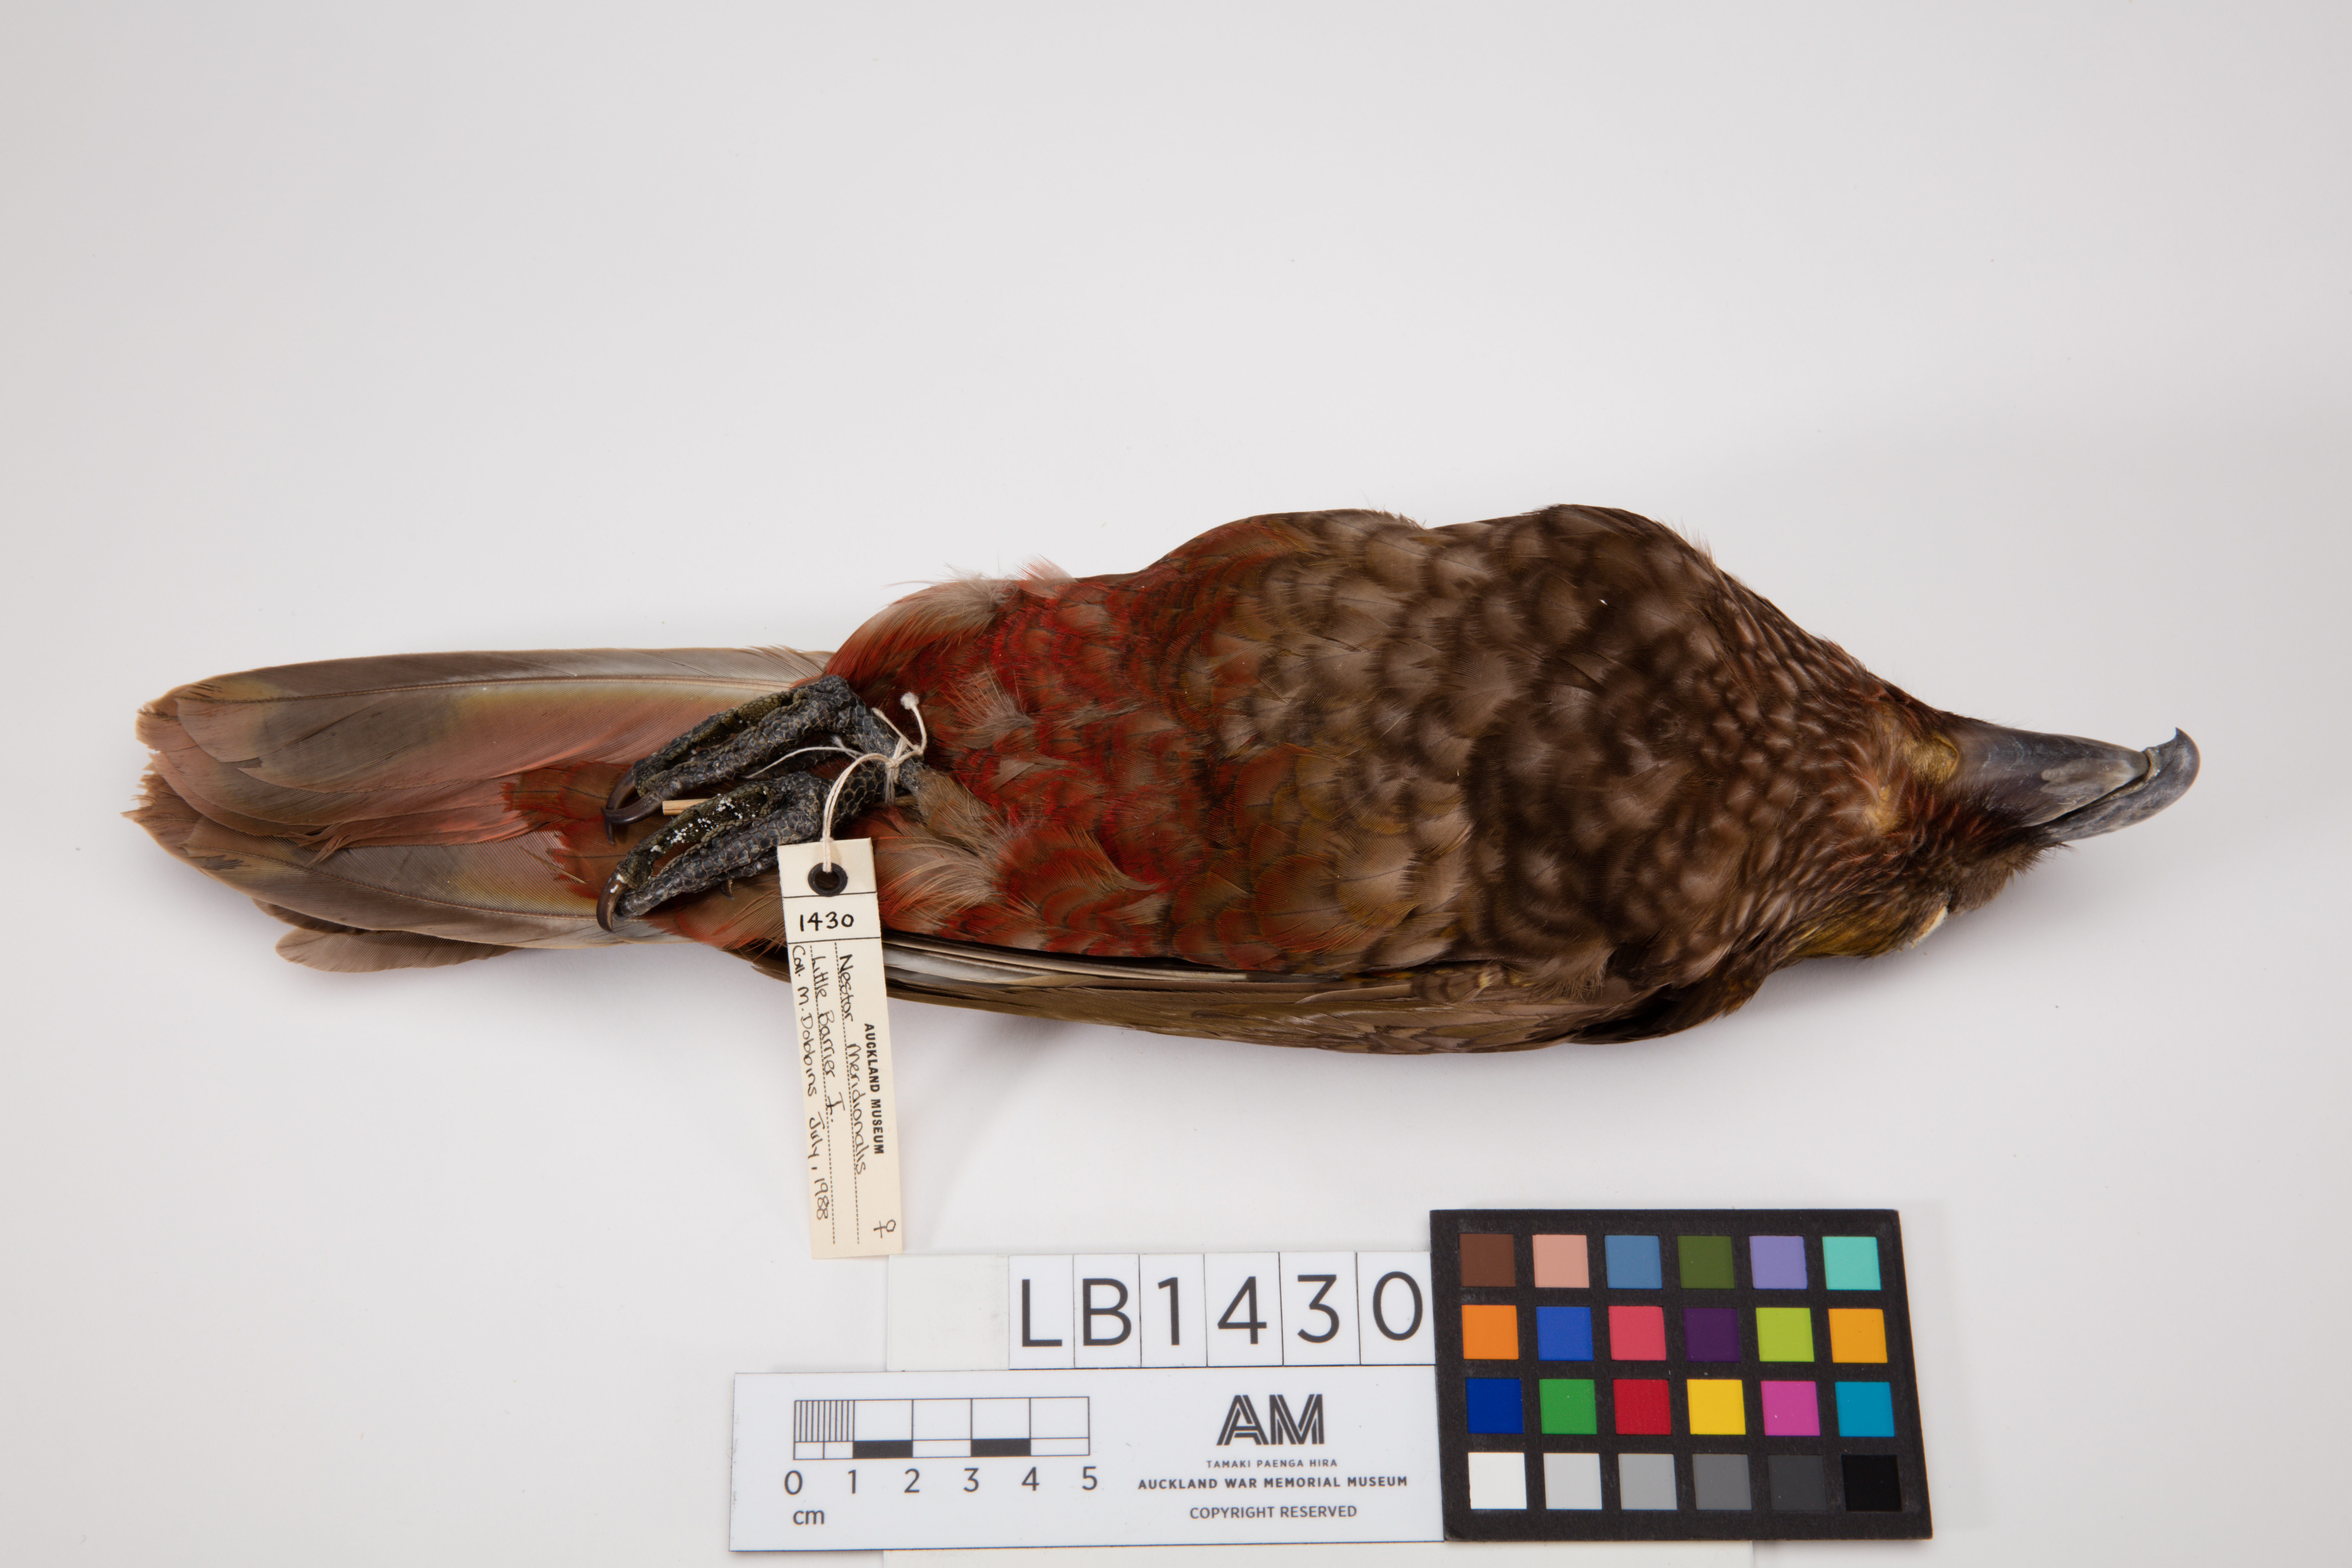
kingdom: Animalia
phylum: Chordata
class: Aves
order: Psittaciformes
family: Psittacidae
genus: Nestor
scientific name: Nestor meridionalis
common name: New zealand kaka
